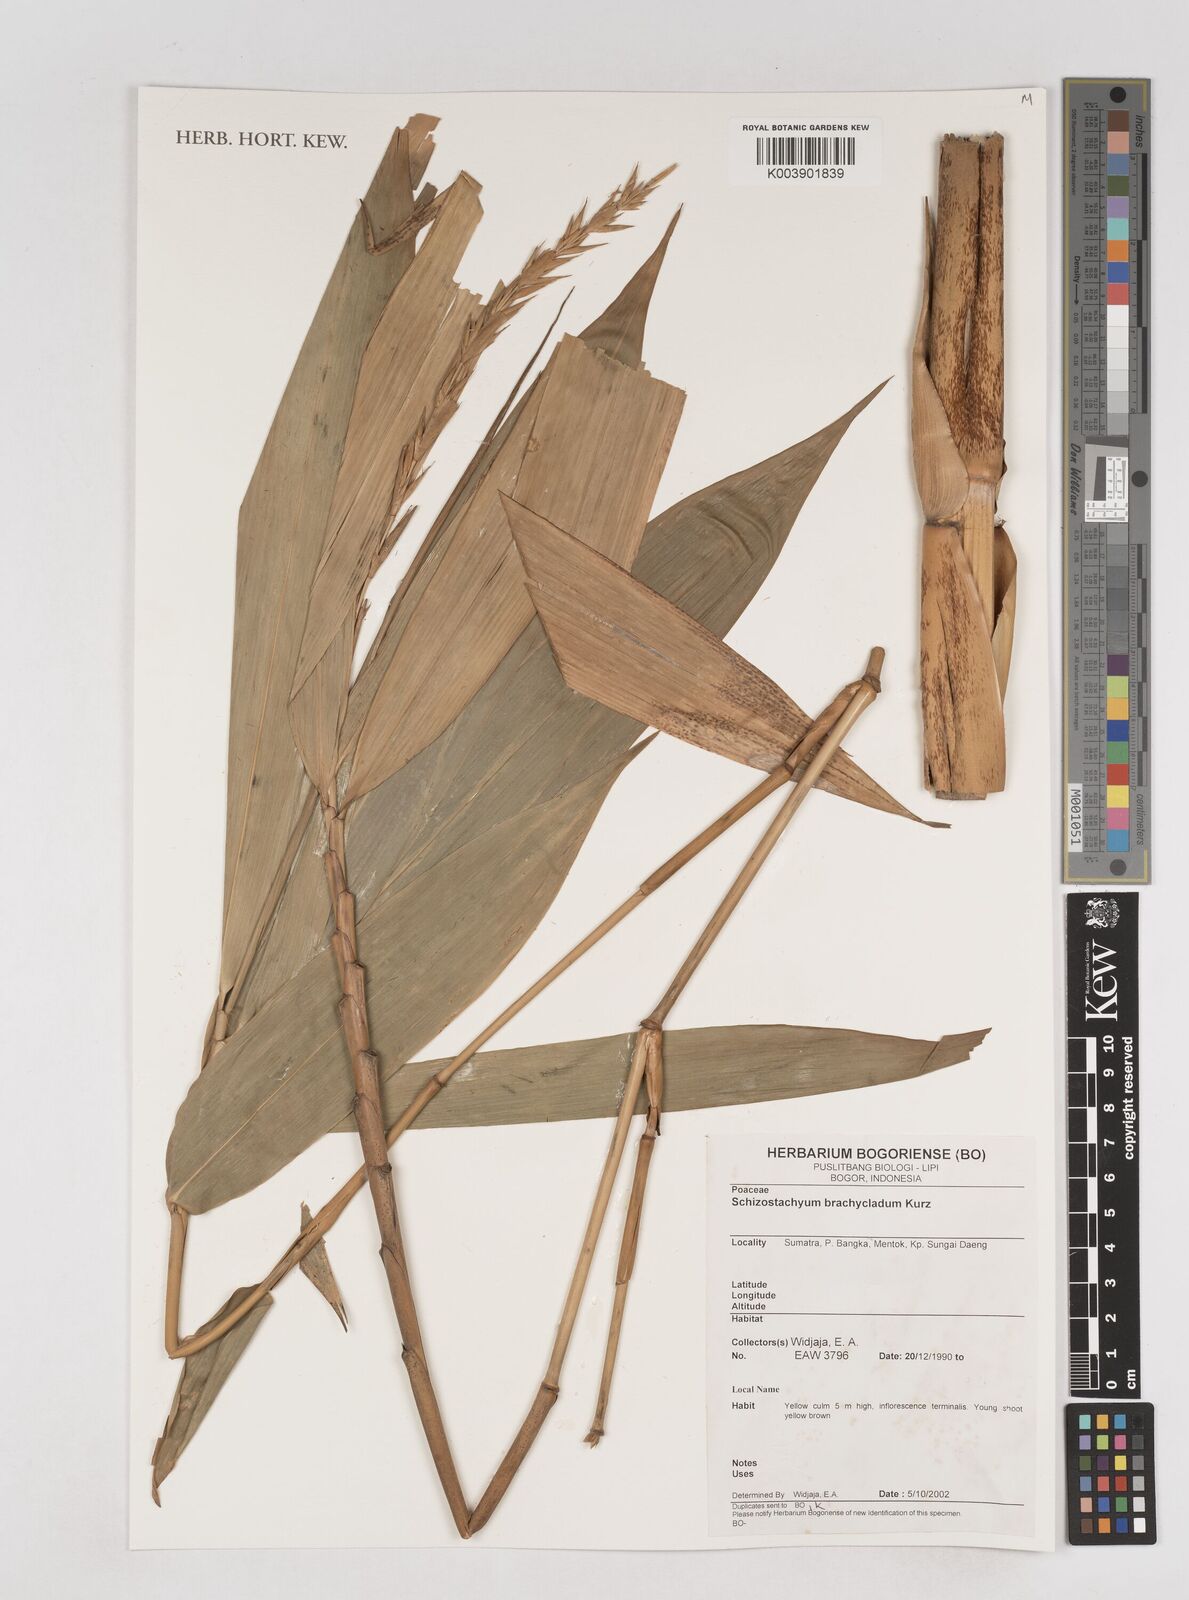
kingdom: Plantae
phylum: Tracheophyta
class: Liliopsida
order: Poales
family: Poaceae
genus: Schizostachyum
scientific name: Schizostachyum brachycladum
